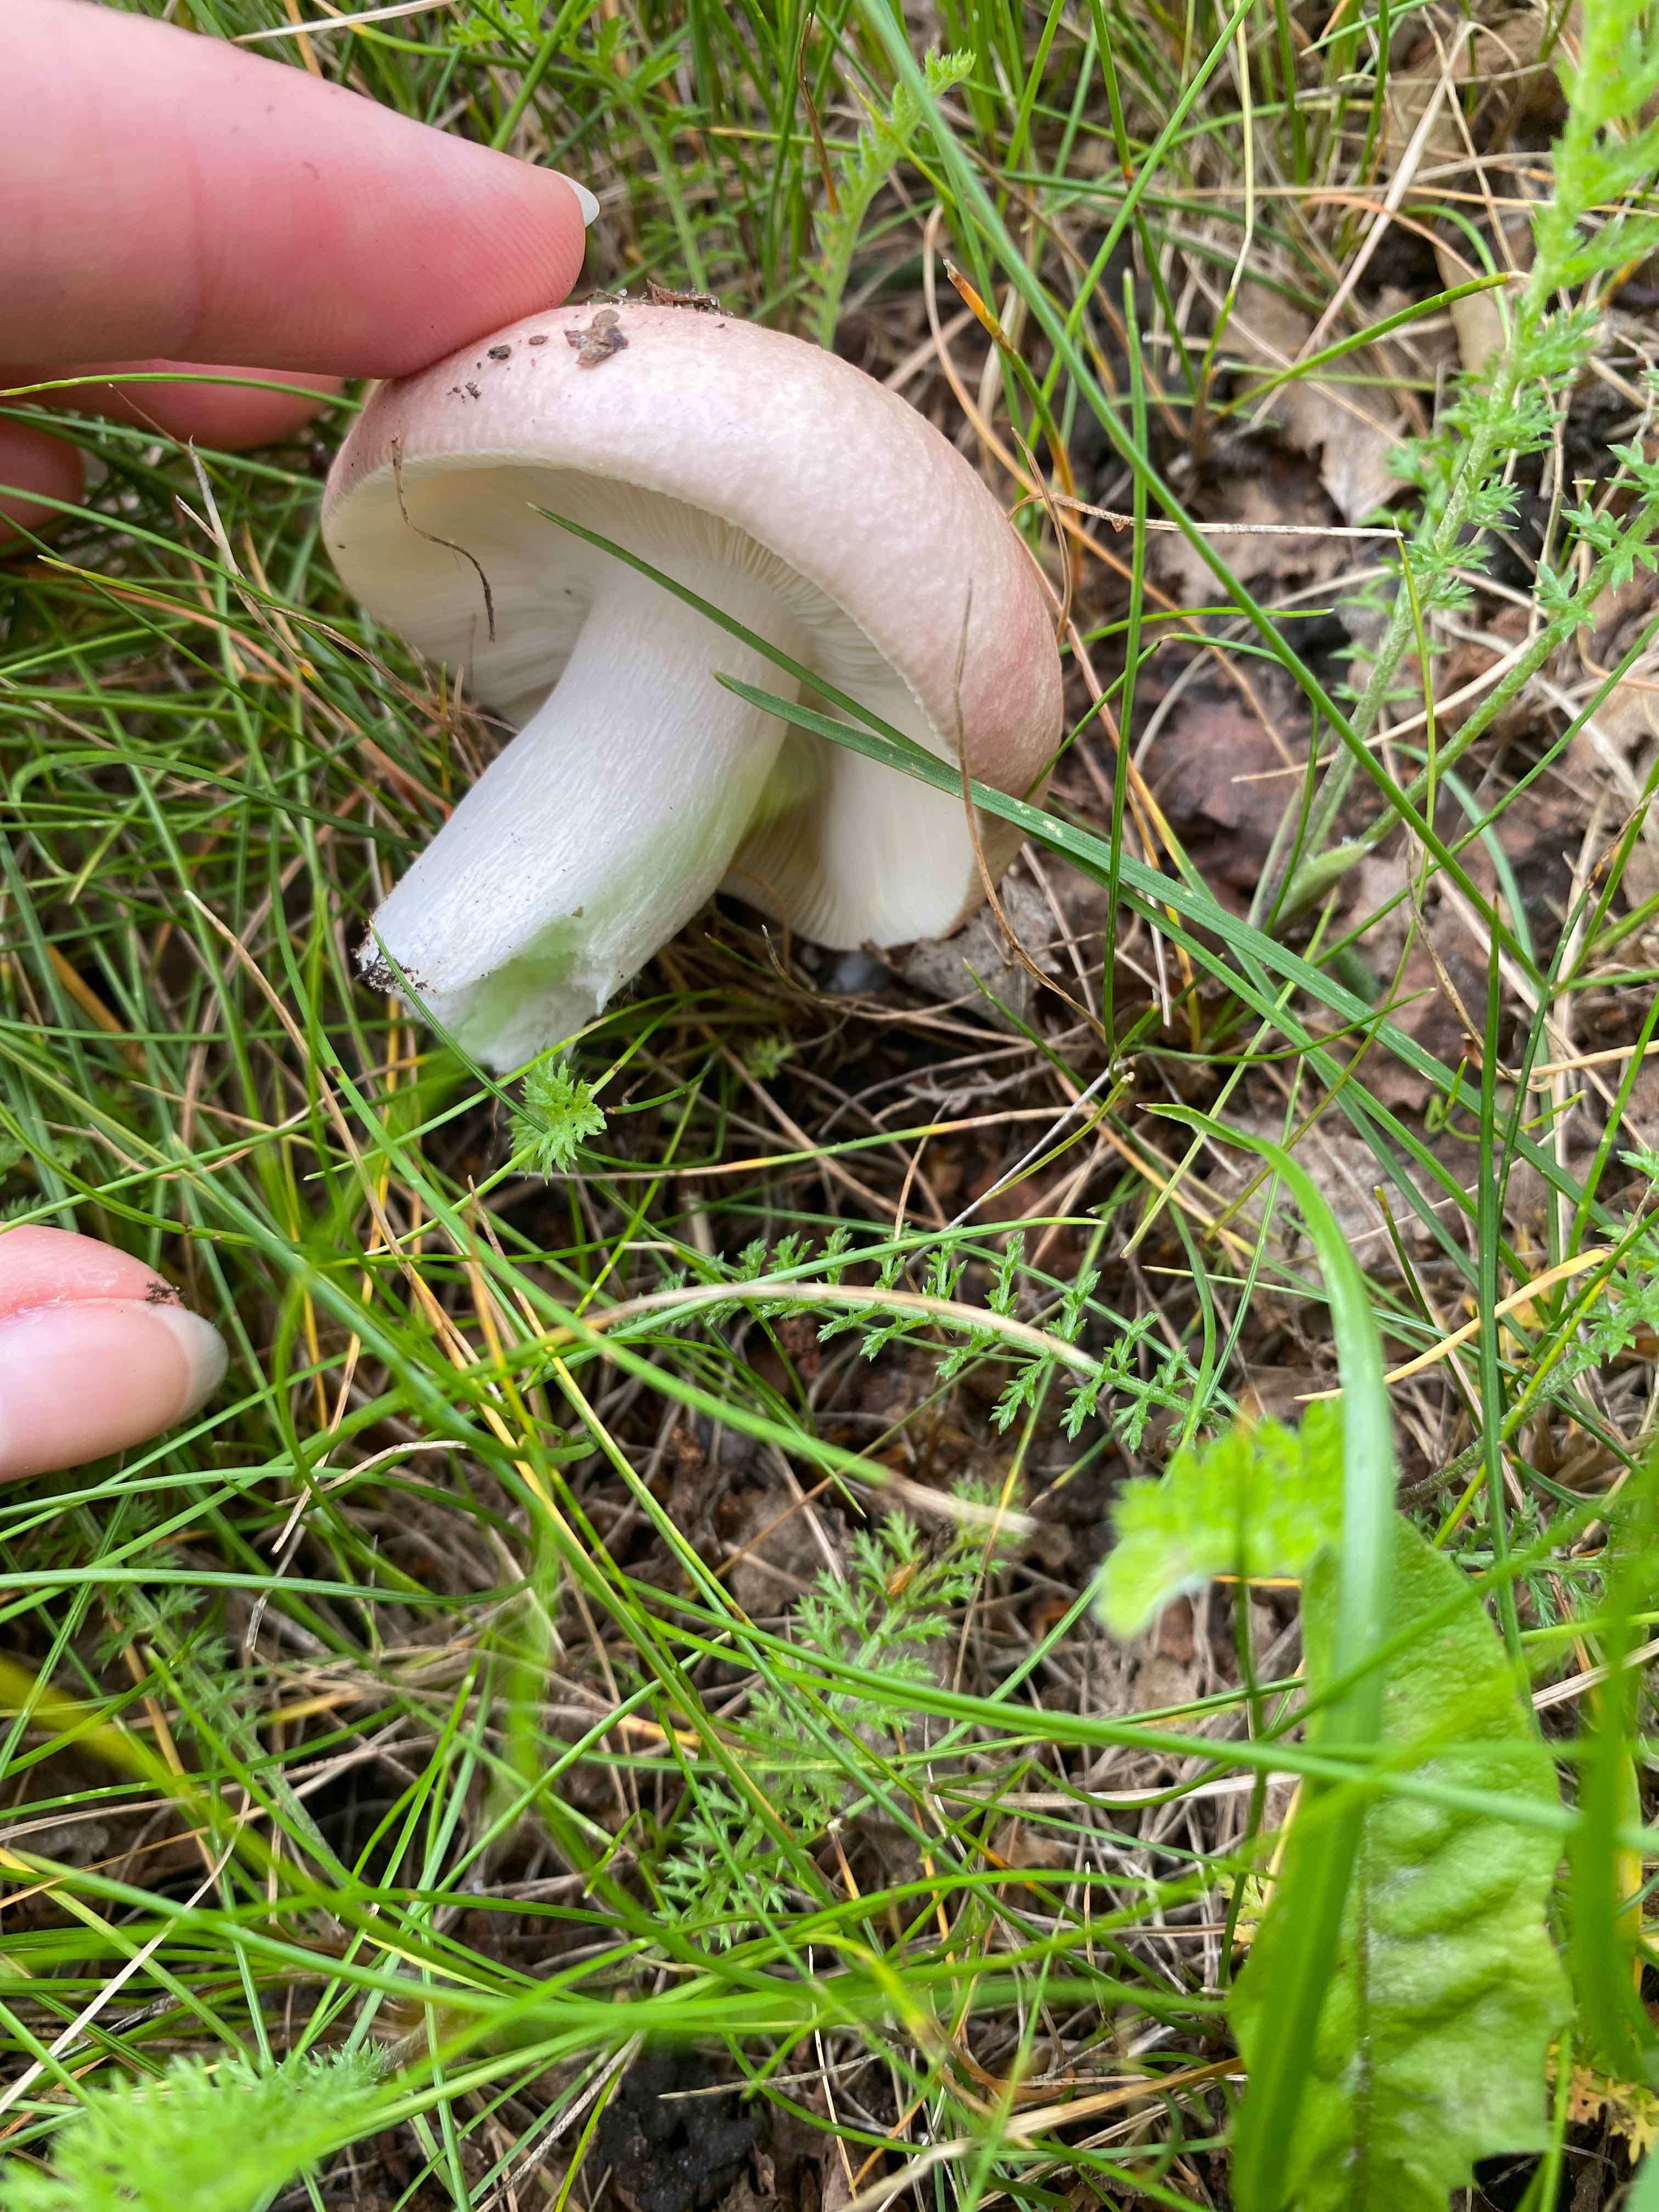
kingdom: Fungi
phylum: Basidiomycota
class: Agaricomycetes
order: Russulales
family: Russulaceae
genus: Russula
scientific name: Russula depallens
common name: falmende skørhat
